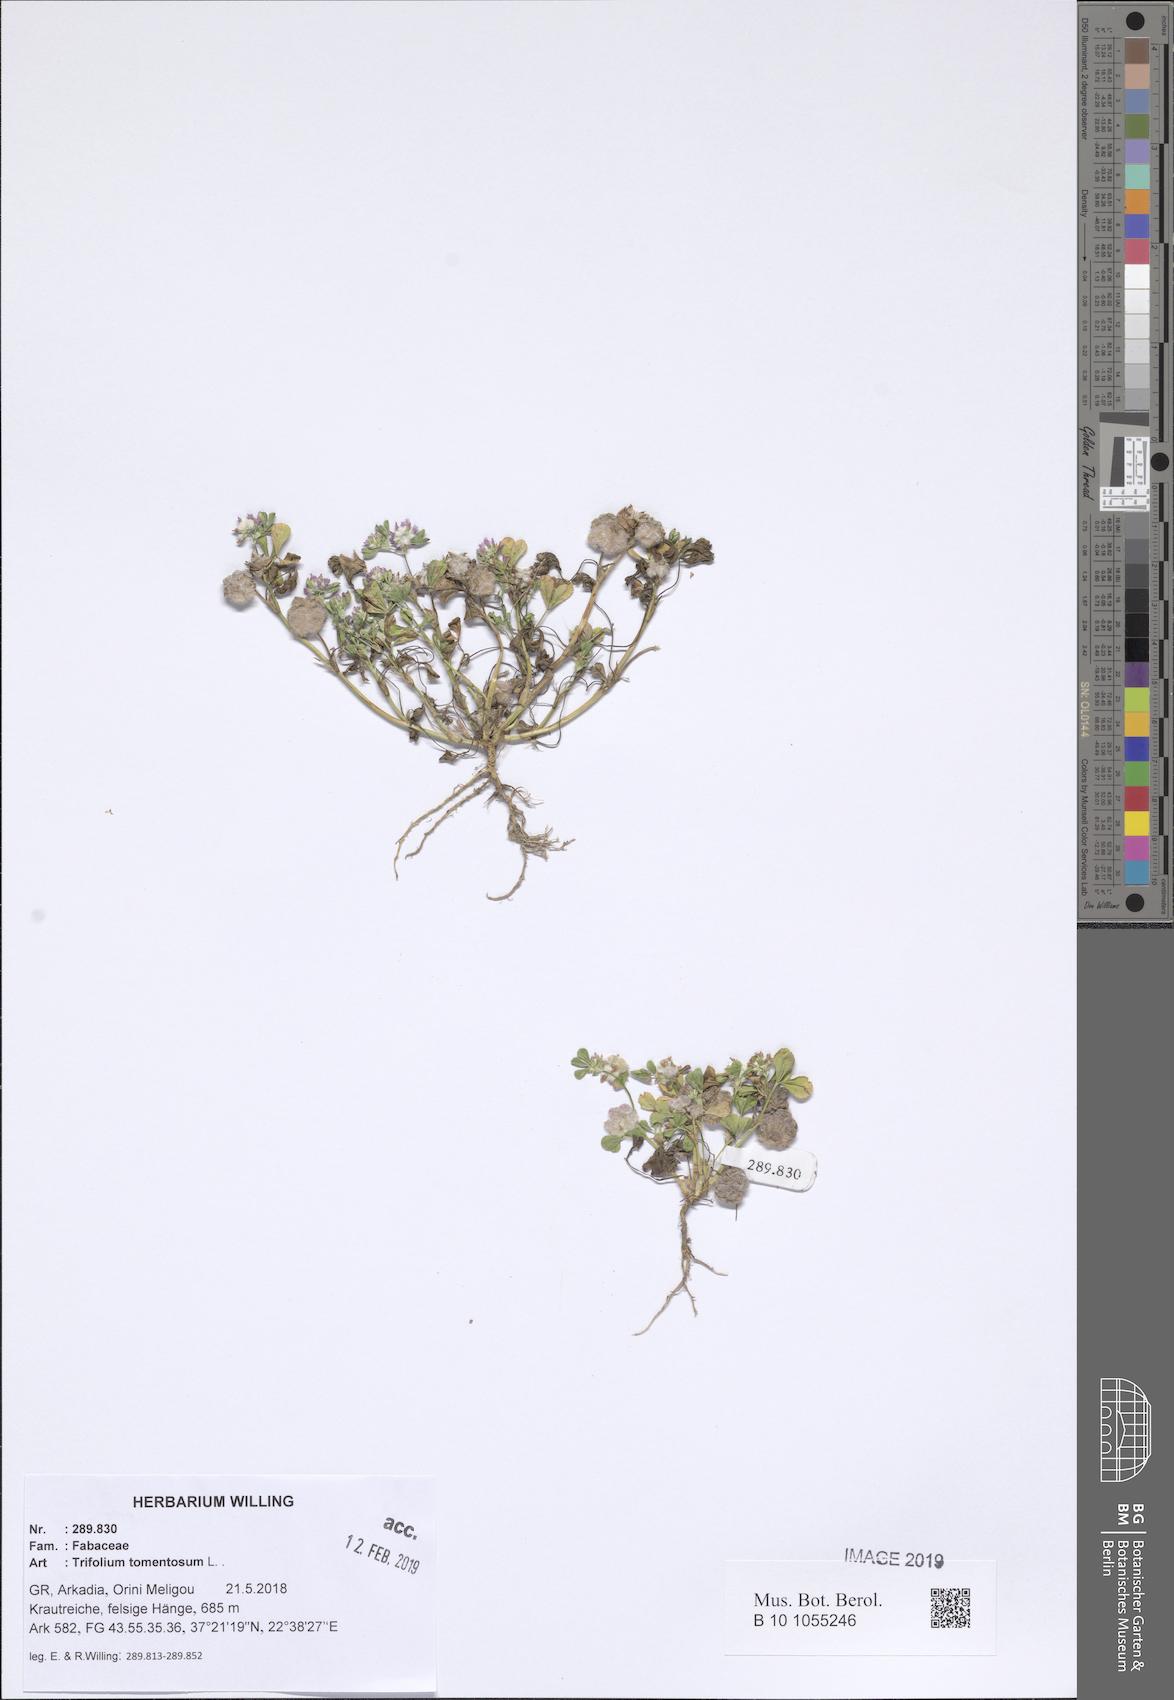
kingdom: Plantae
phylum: Tracheophyta
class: Magnoliopsida
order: Fabales
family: Fabaceae
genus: Trifolium
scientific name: Trifolium tomentosum
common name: Woolly clover
